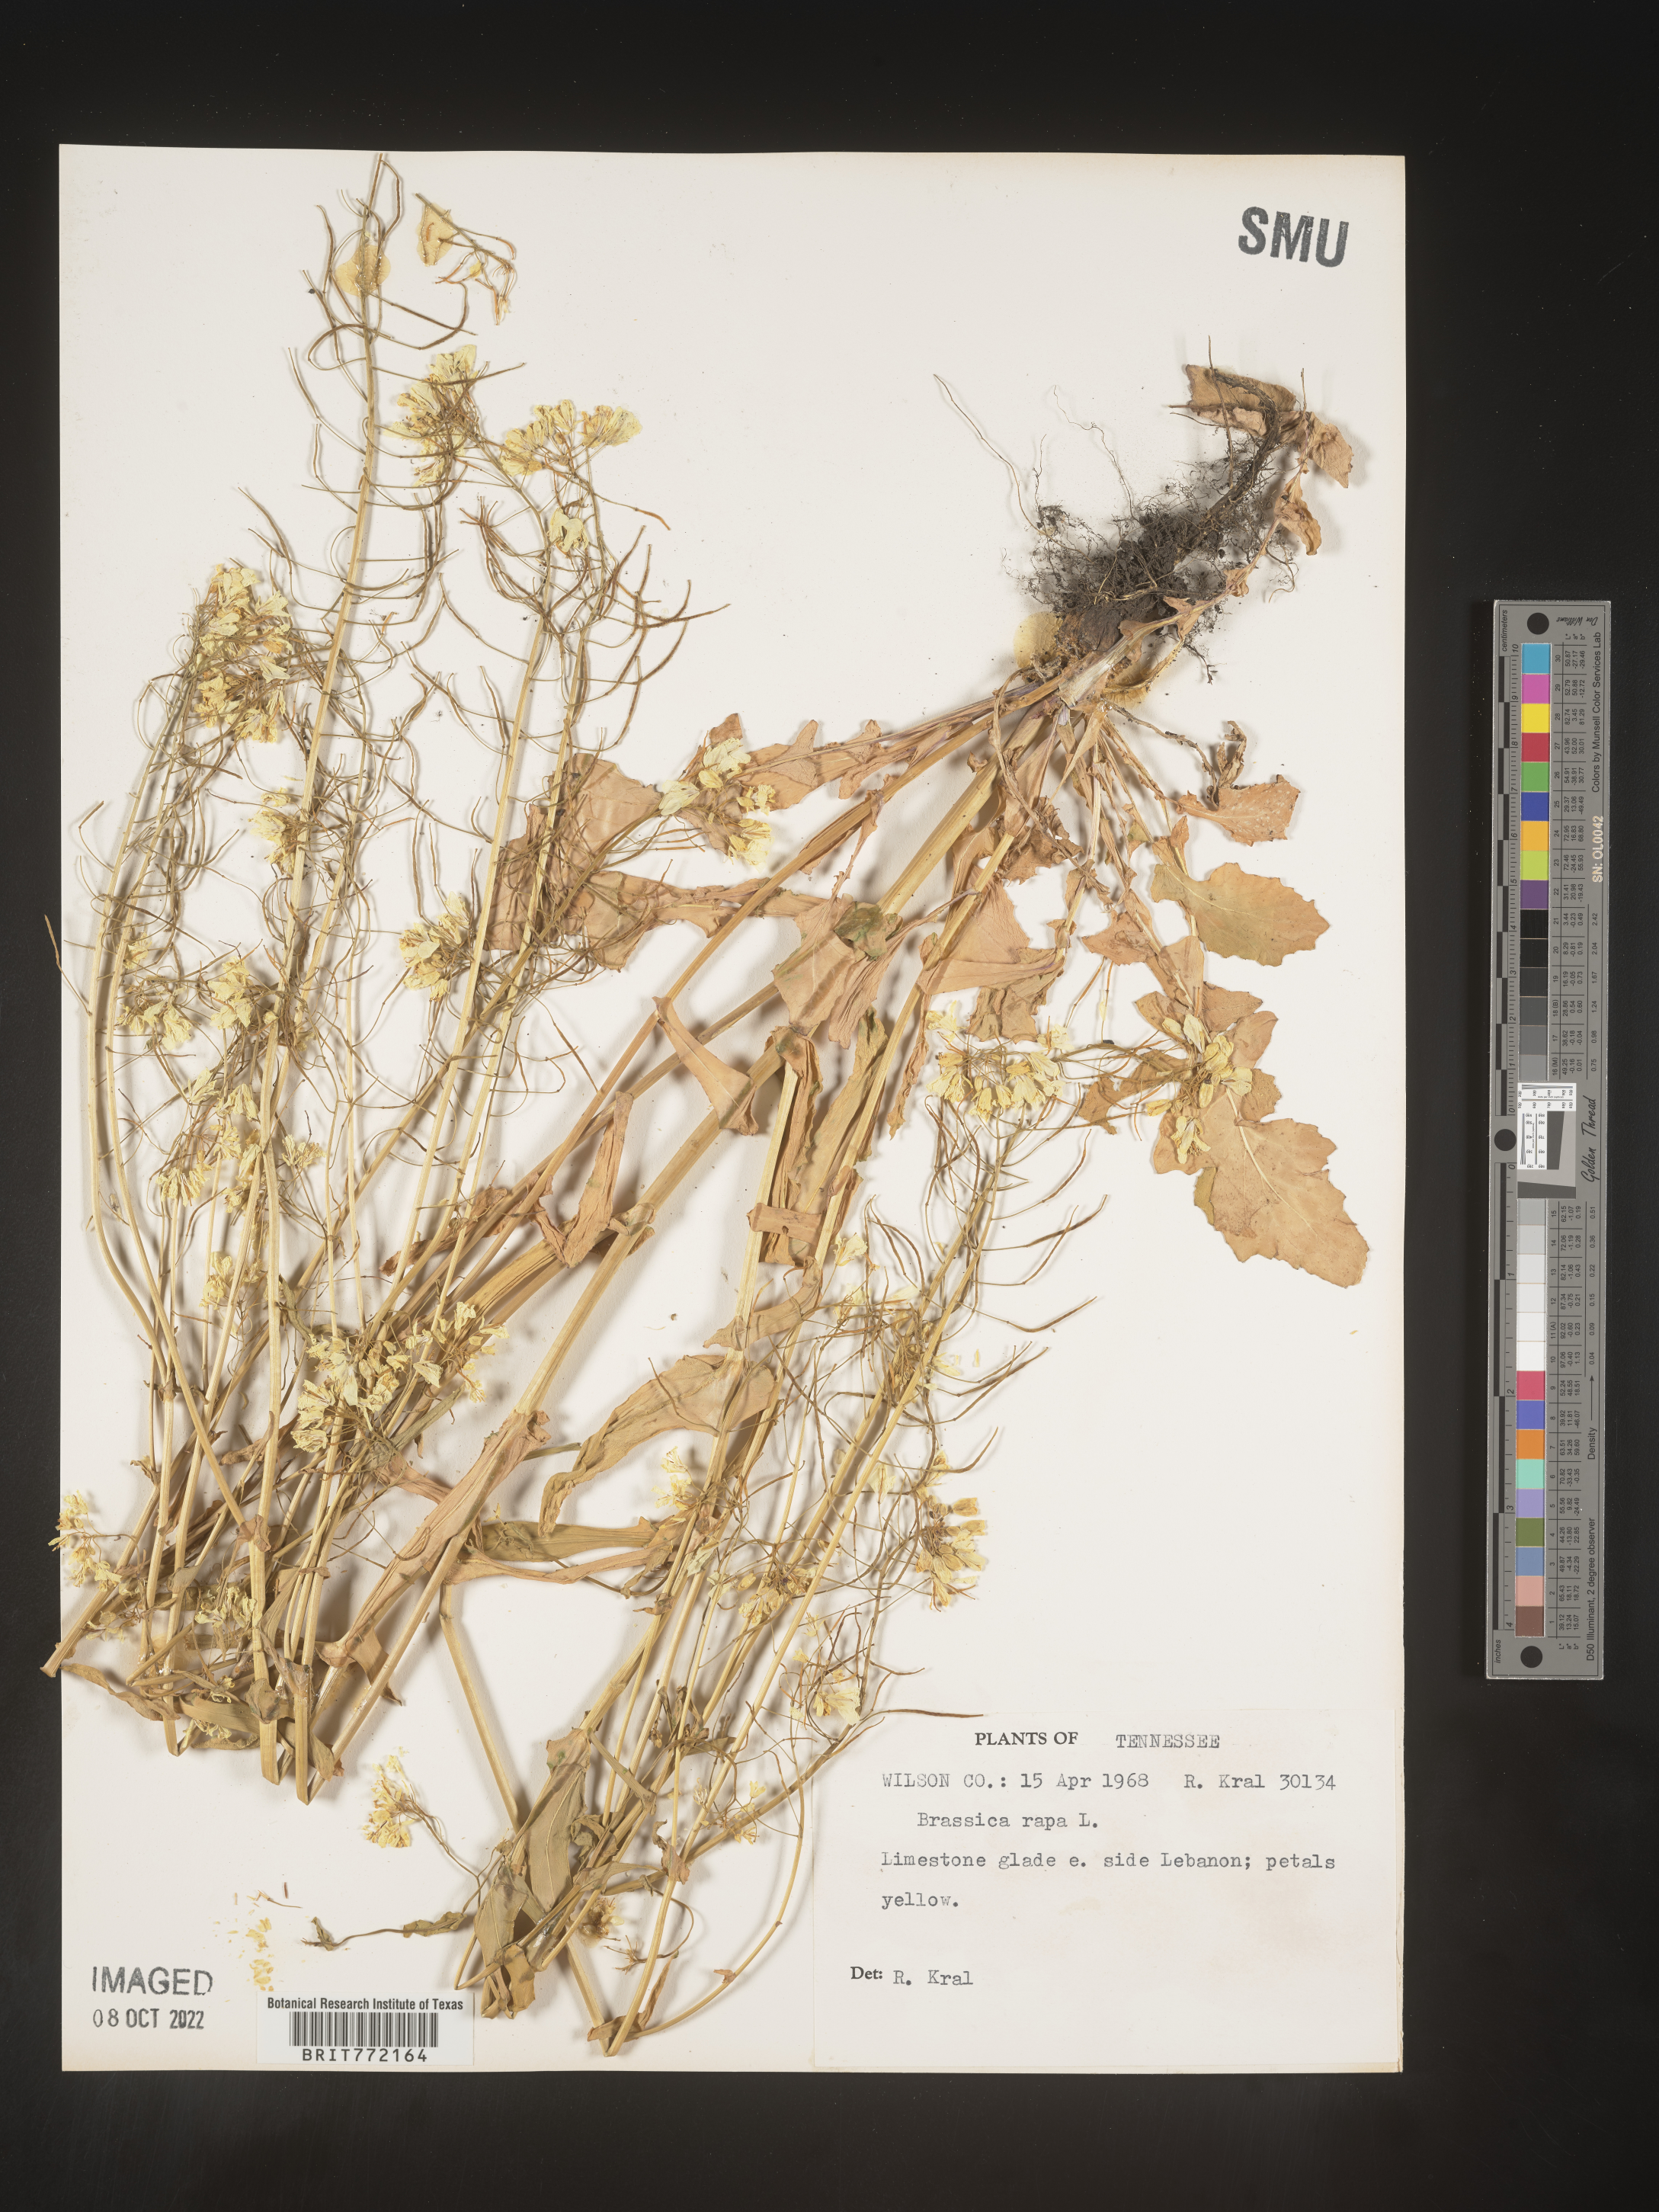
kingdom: Plantae
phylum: Tracheophyta
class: Magnoliopsida
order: Brassicales
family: Brassicaceae
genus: Brassica
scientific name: Brassica rapa
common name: Field mustard
